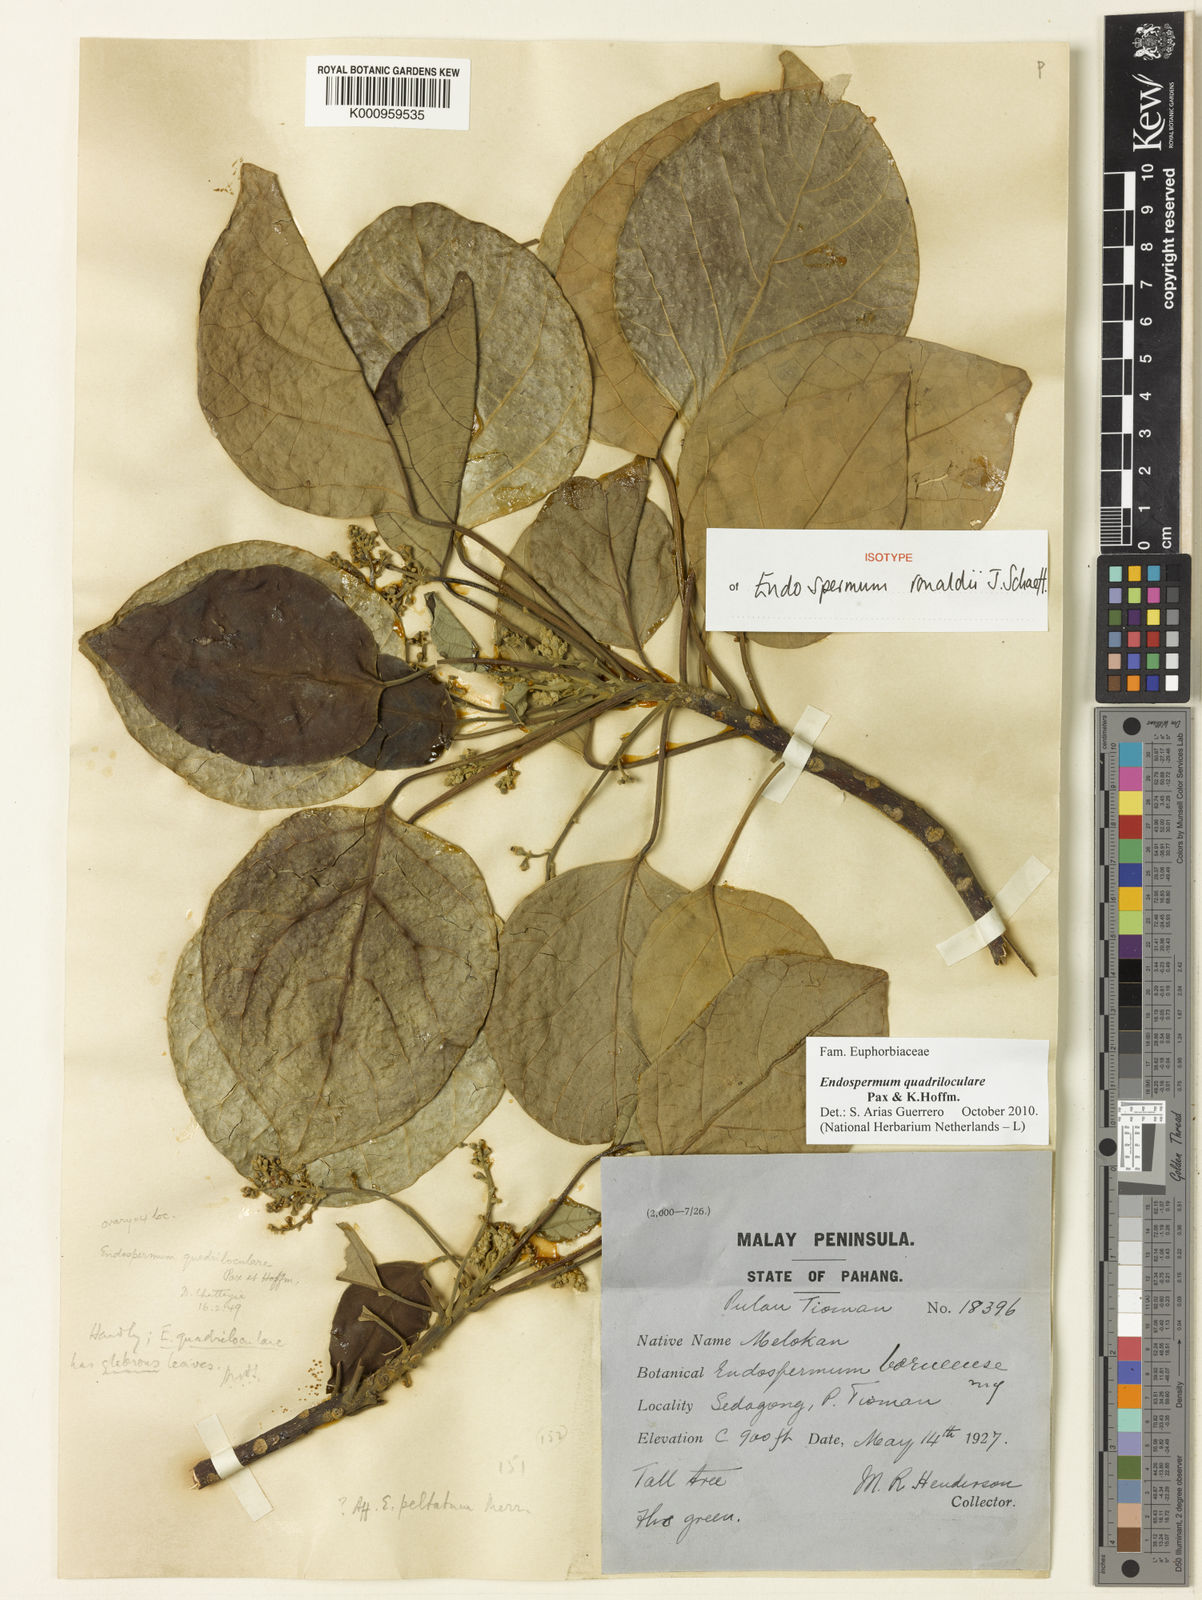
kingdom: Plantae
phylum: Tracheophyta
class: Magnoliopsida
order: Malpighiales
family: Euphorbiaceae
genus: Endospermum
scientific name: Endospermum quadriloculare
